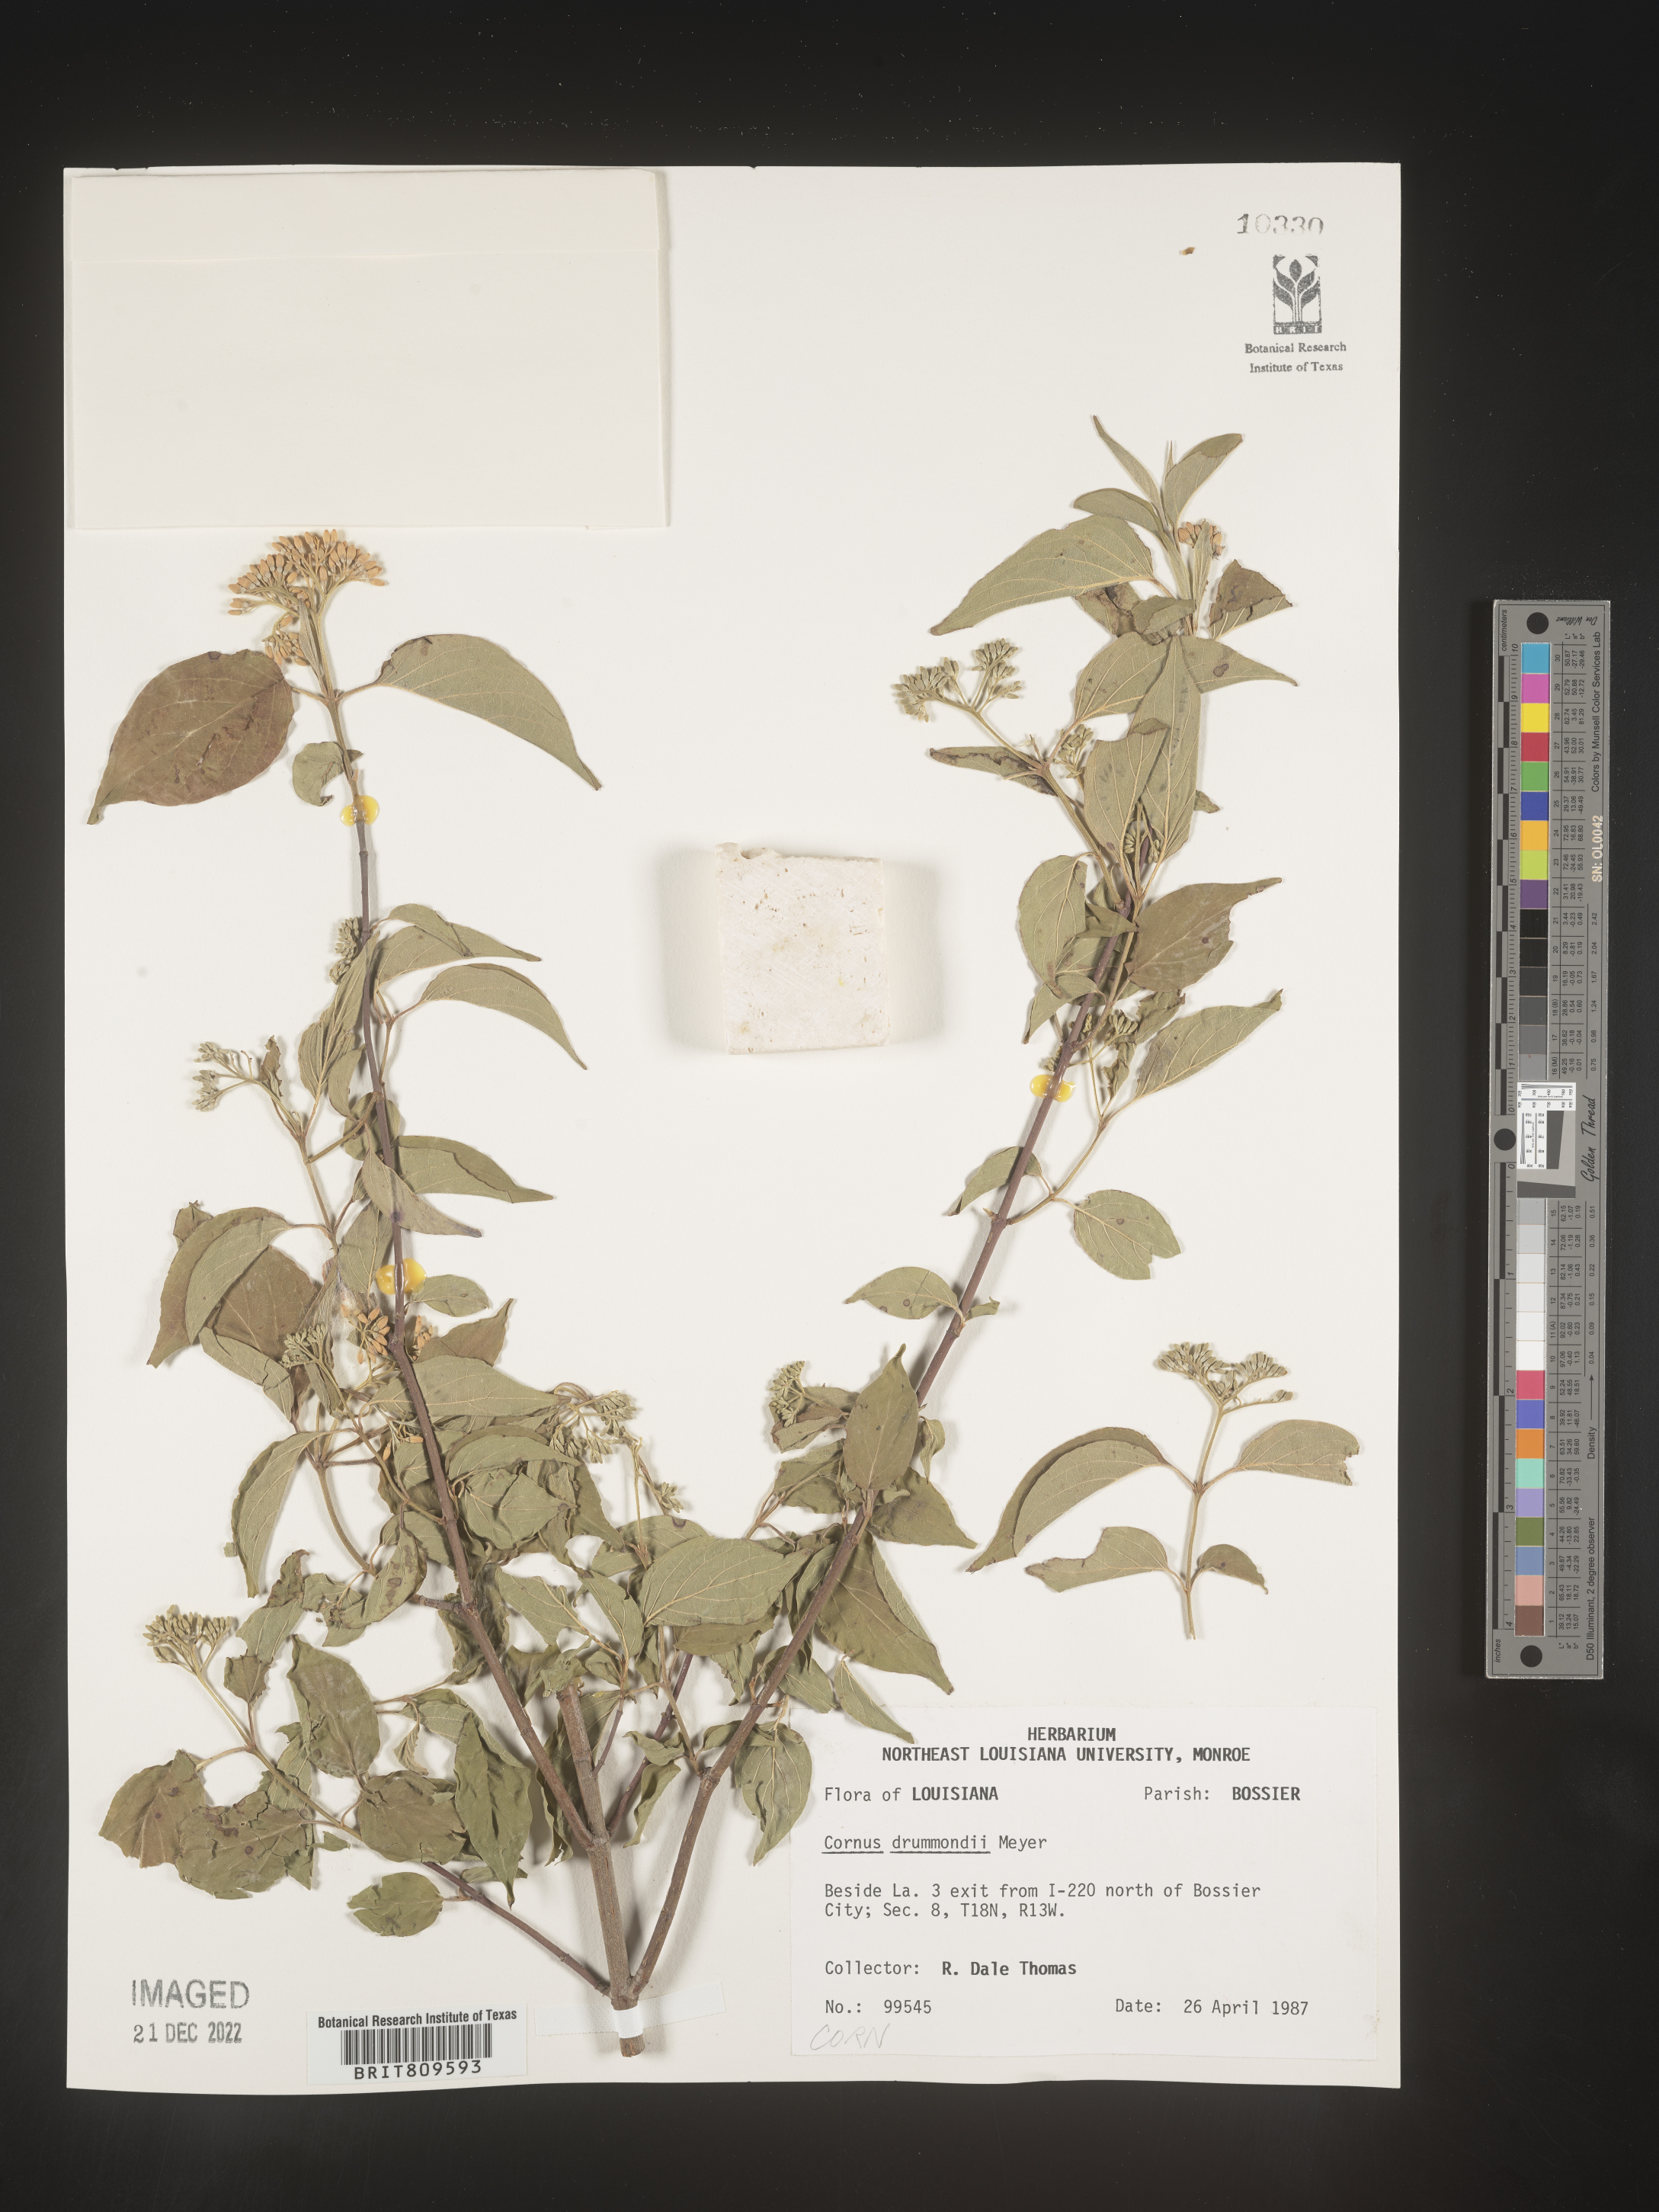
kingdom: Plantae
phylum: Tracheophyta
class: Magnoliopsida
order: Cornales
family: Cornaceae
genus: Cornus
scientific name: Cornus drummondii
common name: Rough-leaf dogwood
